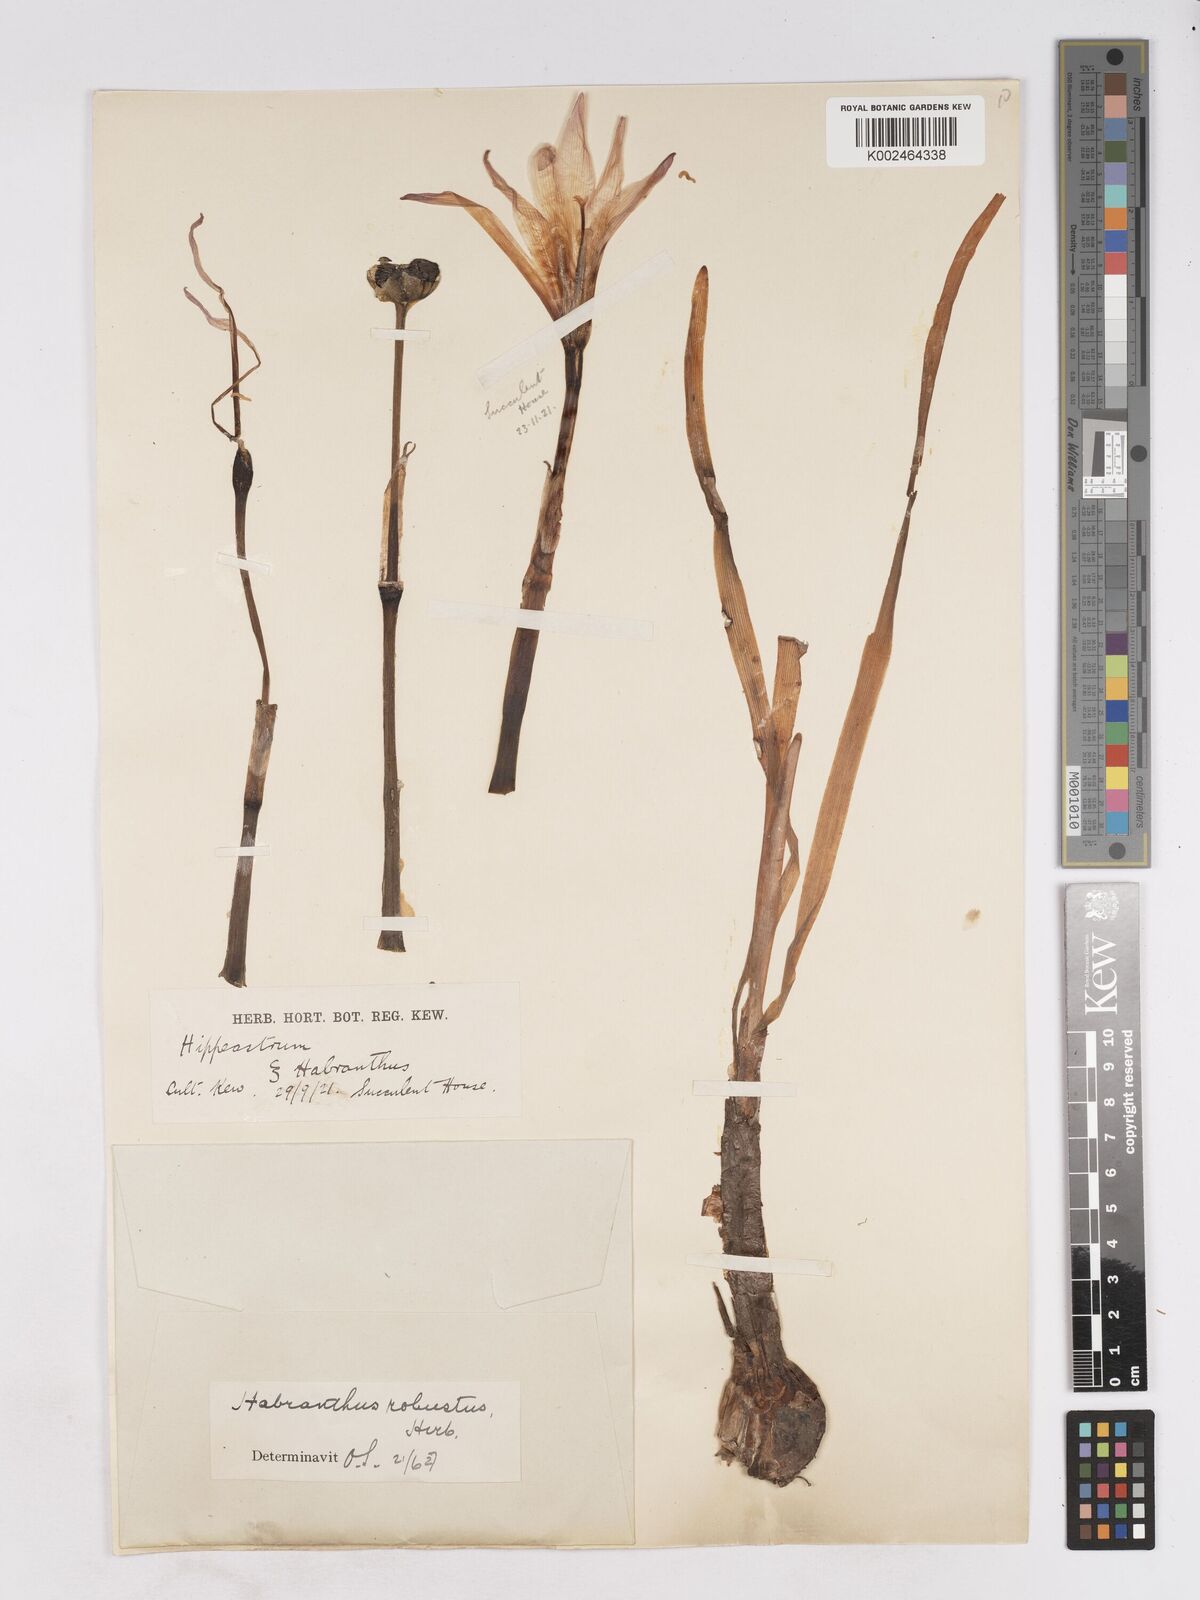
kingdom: Plantae
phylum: Tracheophyta
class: Liliopsida
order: Asparagales
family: Amaryllidaceae
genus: Zephyranthes
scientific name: Zephyranthes robusta
